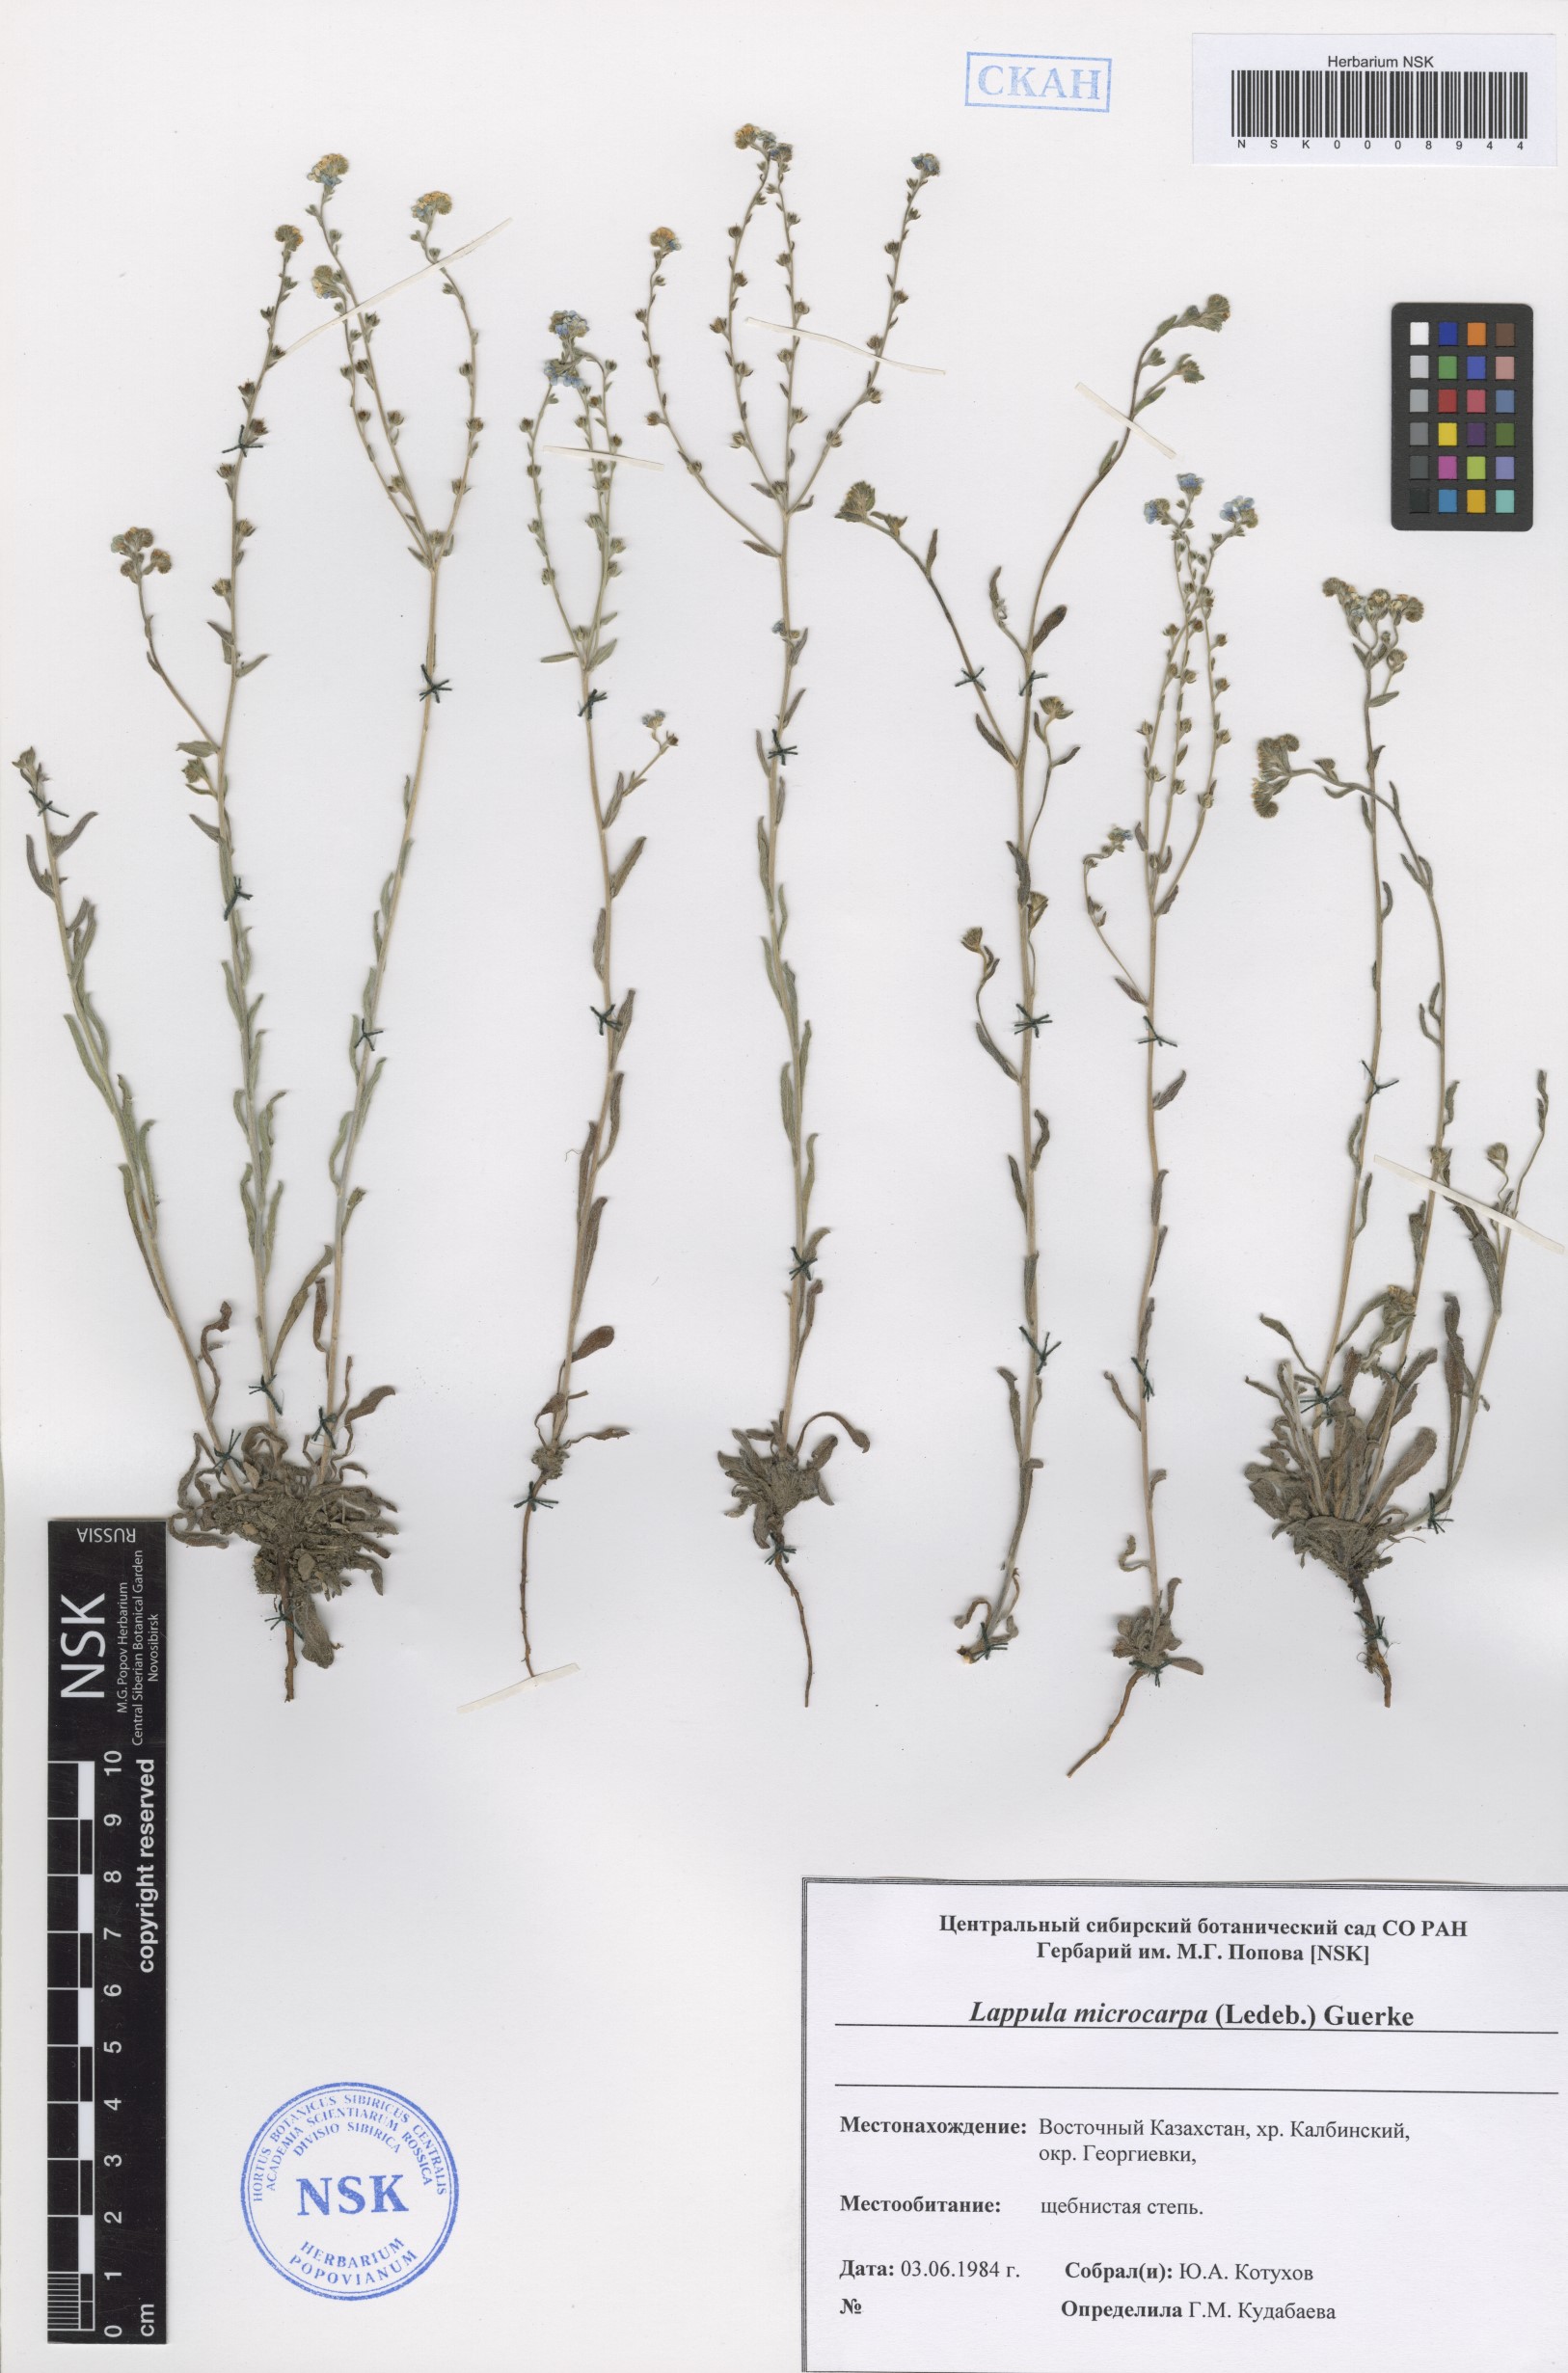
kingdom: Plantae
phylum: Tracheophyta
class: Magnoliopsida
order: Boraginales
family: Boraginaceae
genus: Lappula
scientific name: Lappula microcarpa
